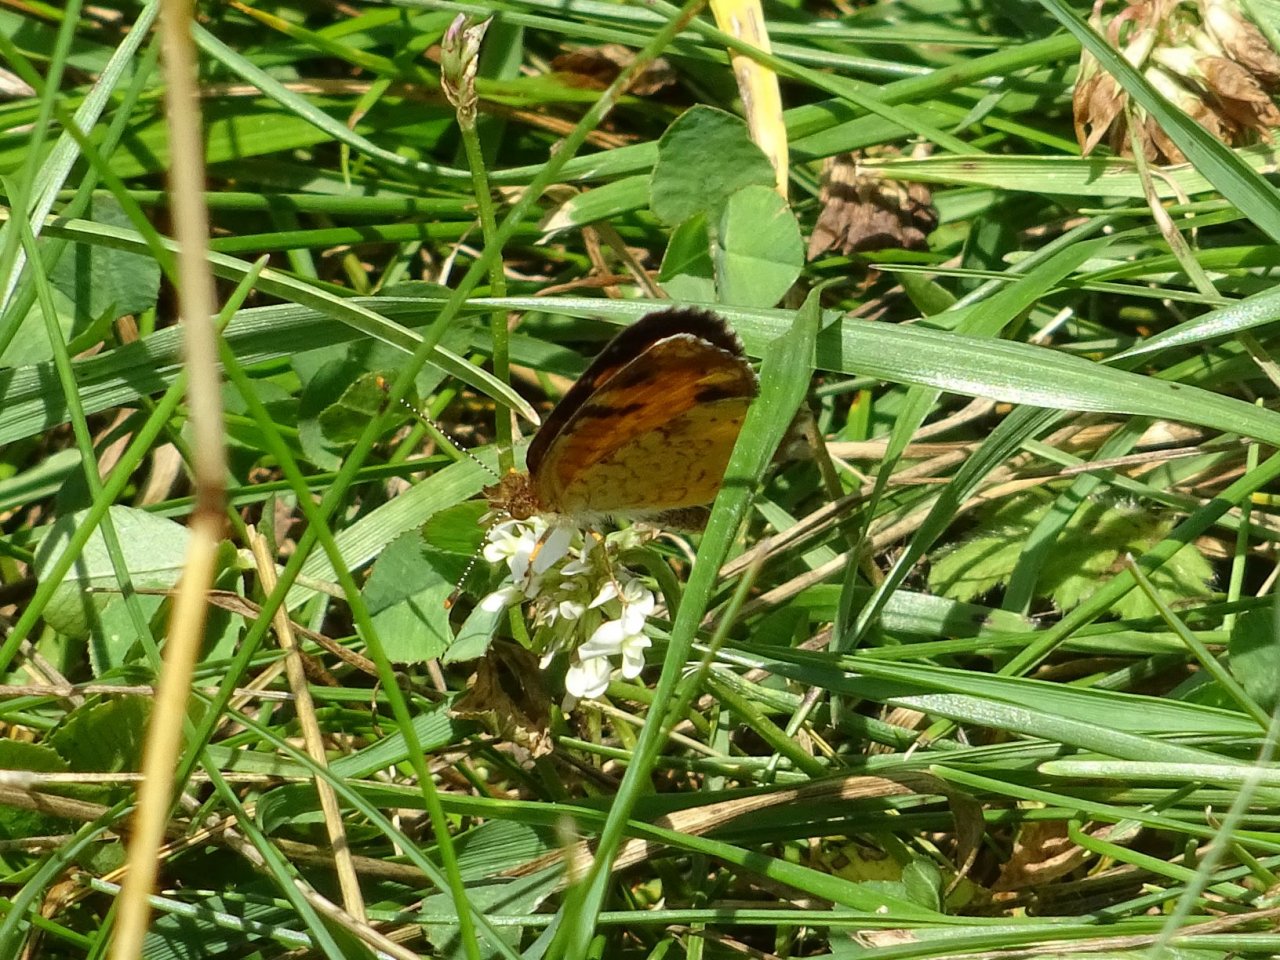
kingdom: Animalia
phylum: Arthropoda
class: Insecta
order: Lepidoptera
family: Nymphalidae
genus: Phyciodes
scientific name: Phyciodes tharos
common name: Northern Crescent
